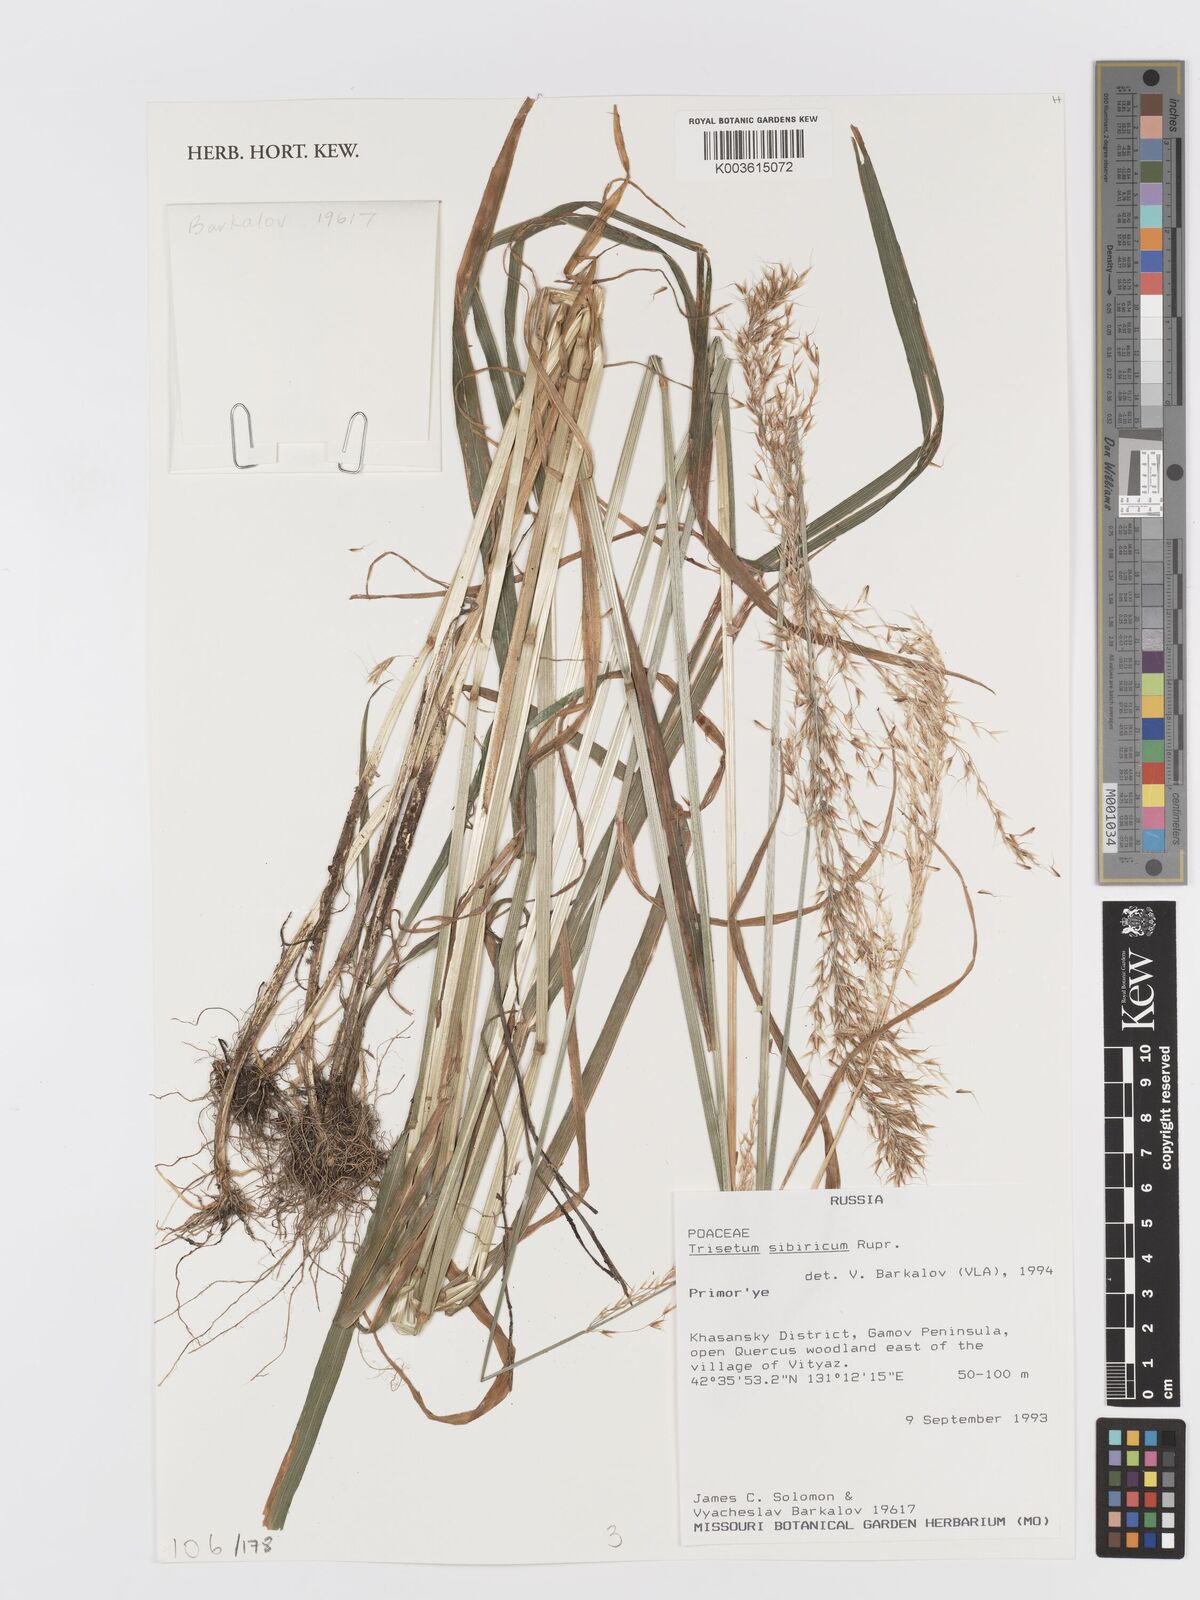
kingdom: Plantae
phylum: Tracheophyta
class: Liliopsida
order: Poales
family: Poaceae
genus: Trisetum
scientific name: Trisetum rigidum
